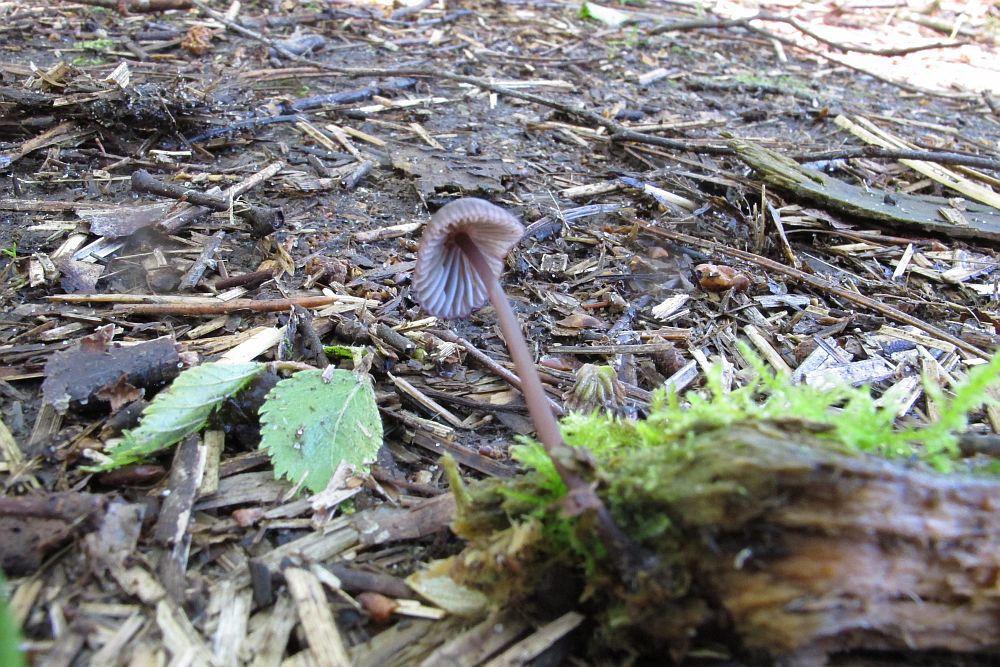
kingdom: Fungi
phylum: Basidiomycota
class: Agaricomycetes
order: Agaricales
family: Mycenaceae
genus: Mycena
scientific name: Mycena purpureofusca
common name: purpur-huesvamp
